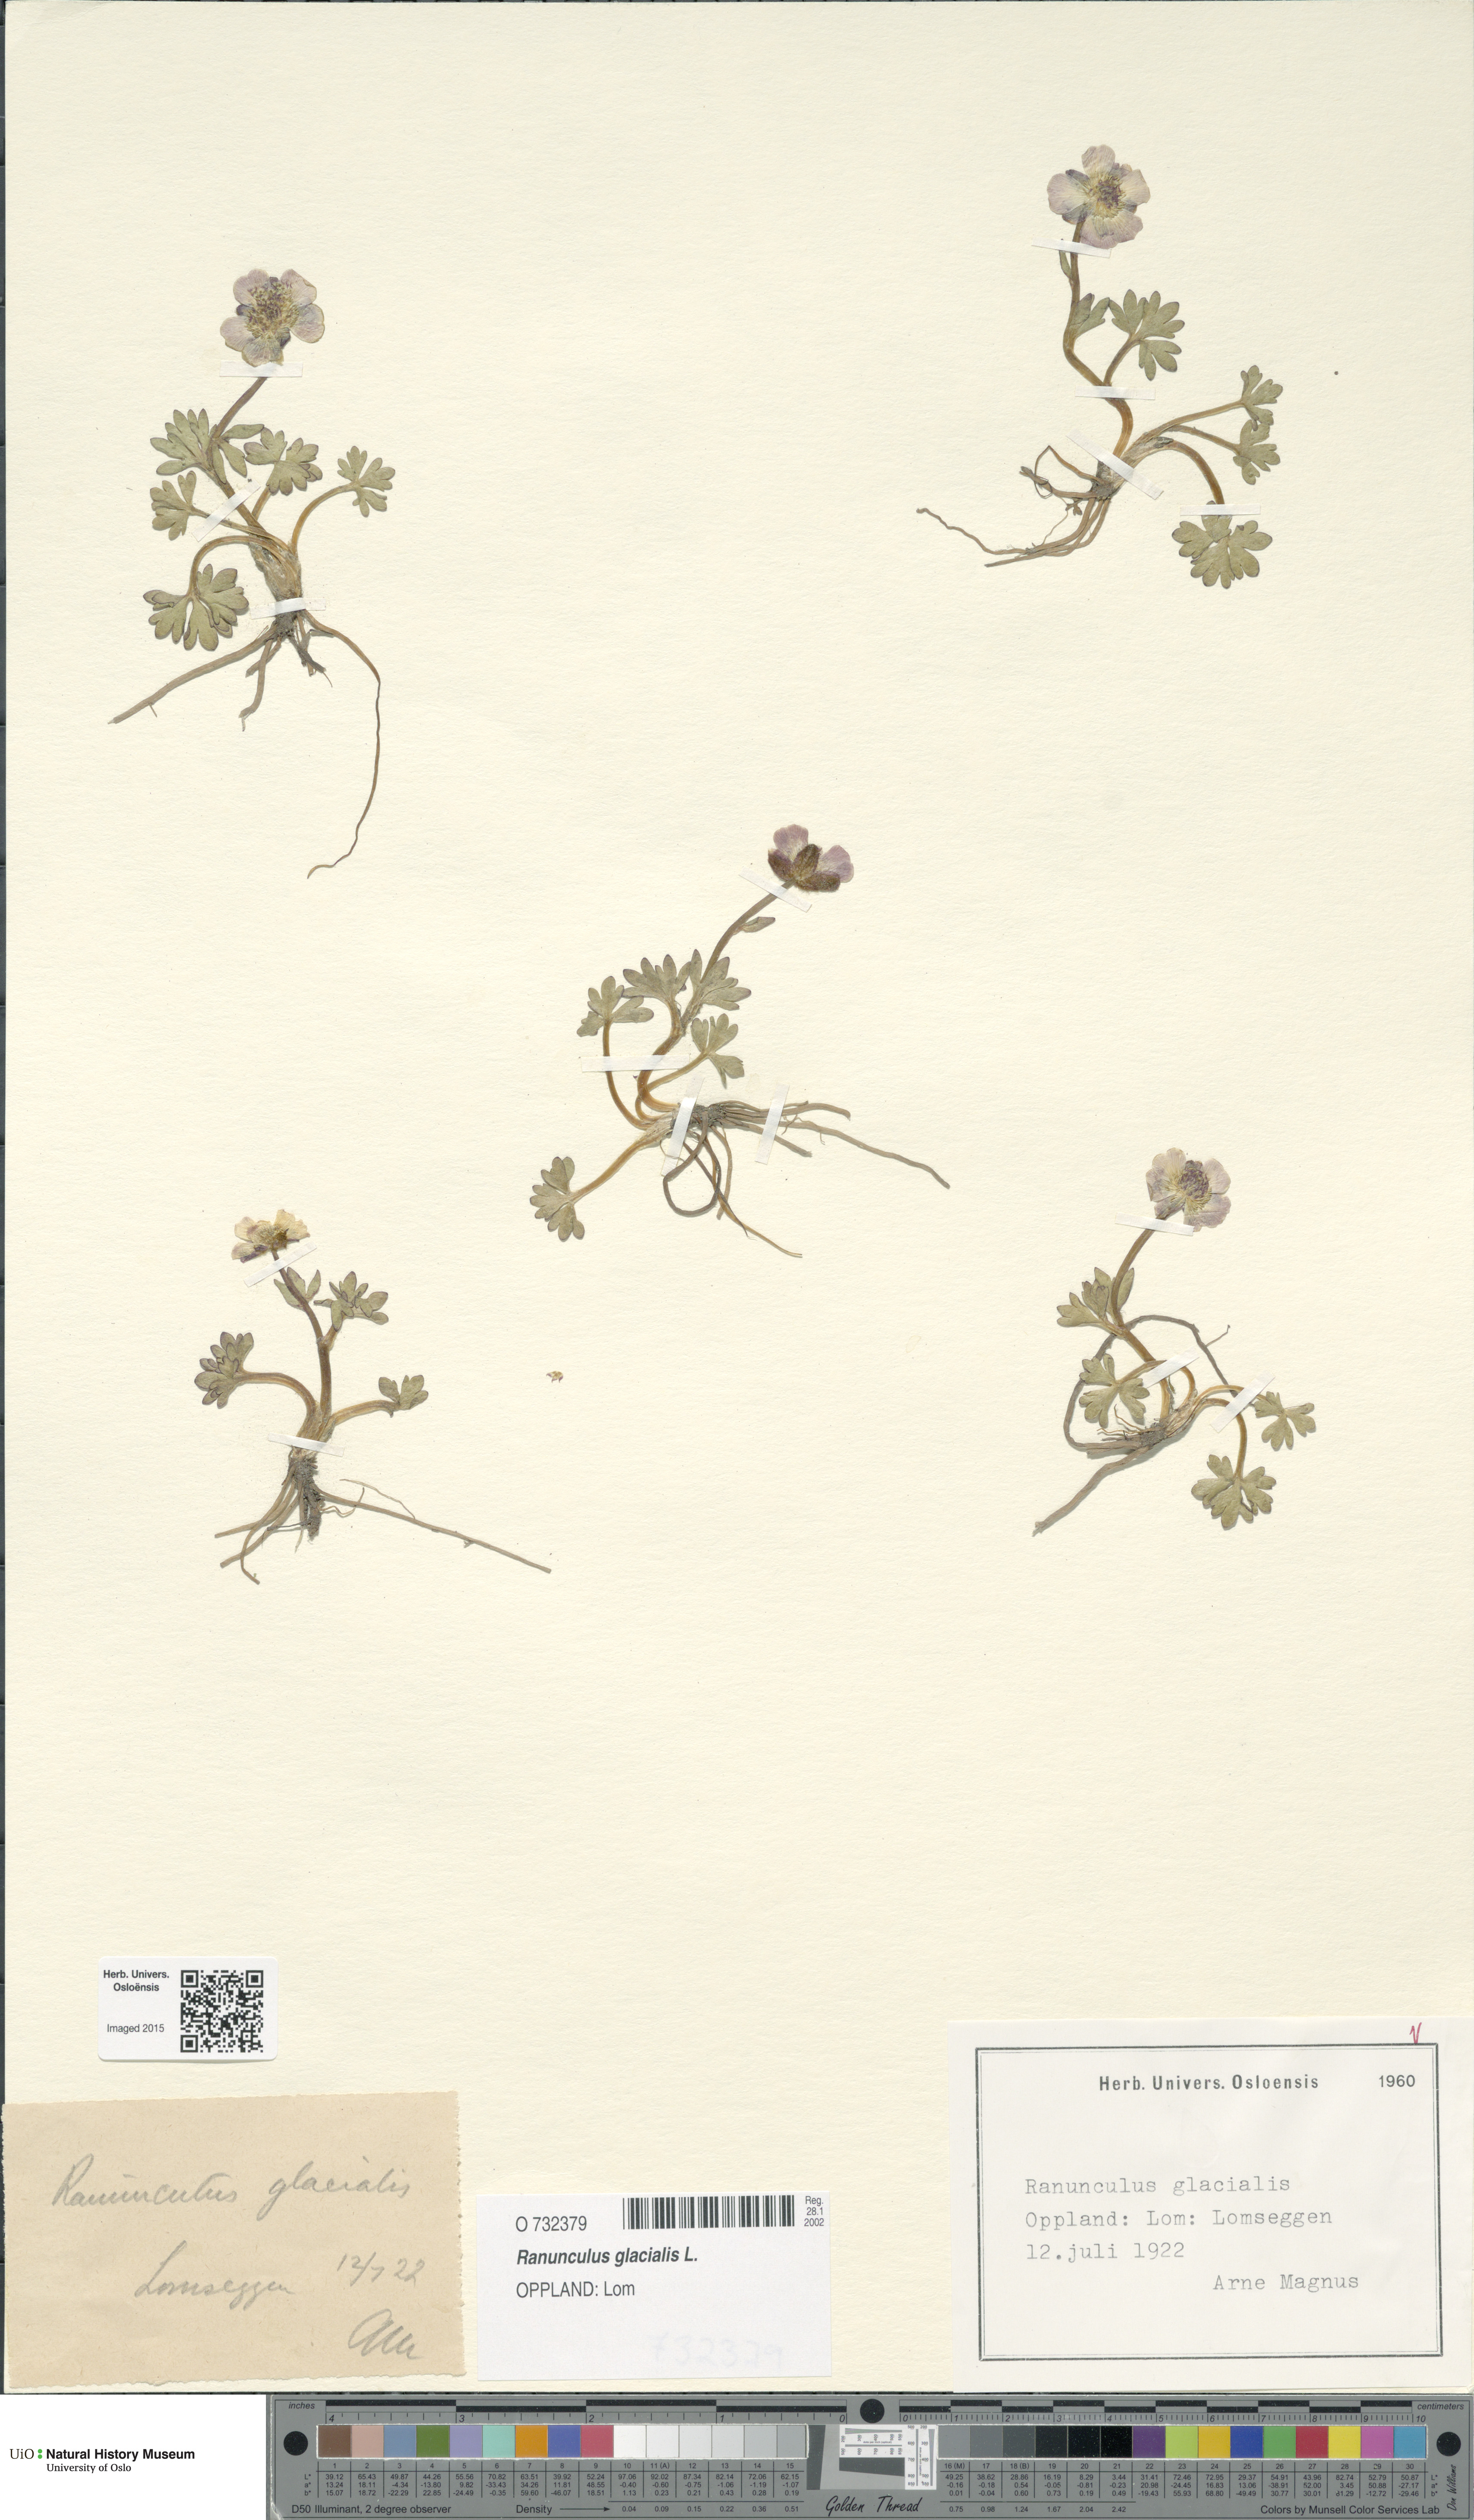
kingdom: Plantae
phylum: Tracheophyta
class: Magnoliopsida
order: Ranunculales
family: Ranunculaceae
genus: Ranunculus
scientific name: Ranunculus glacialis
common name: Glacier buttercup
